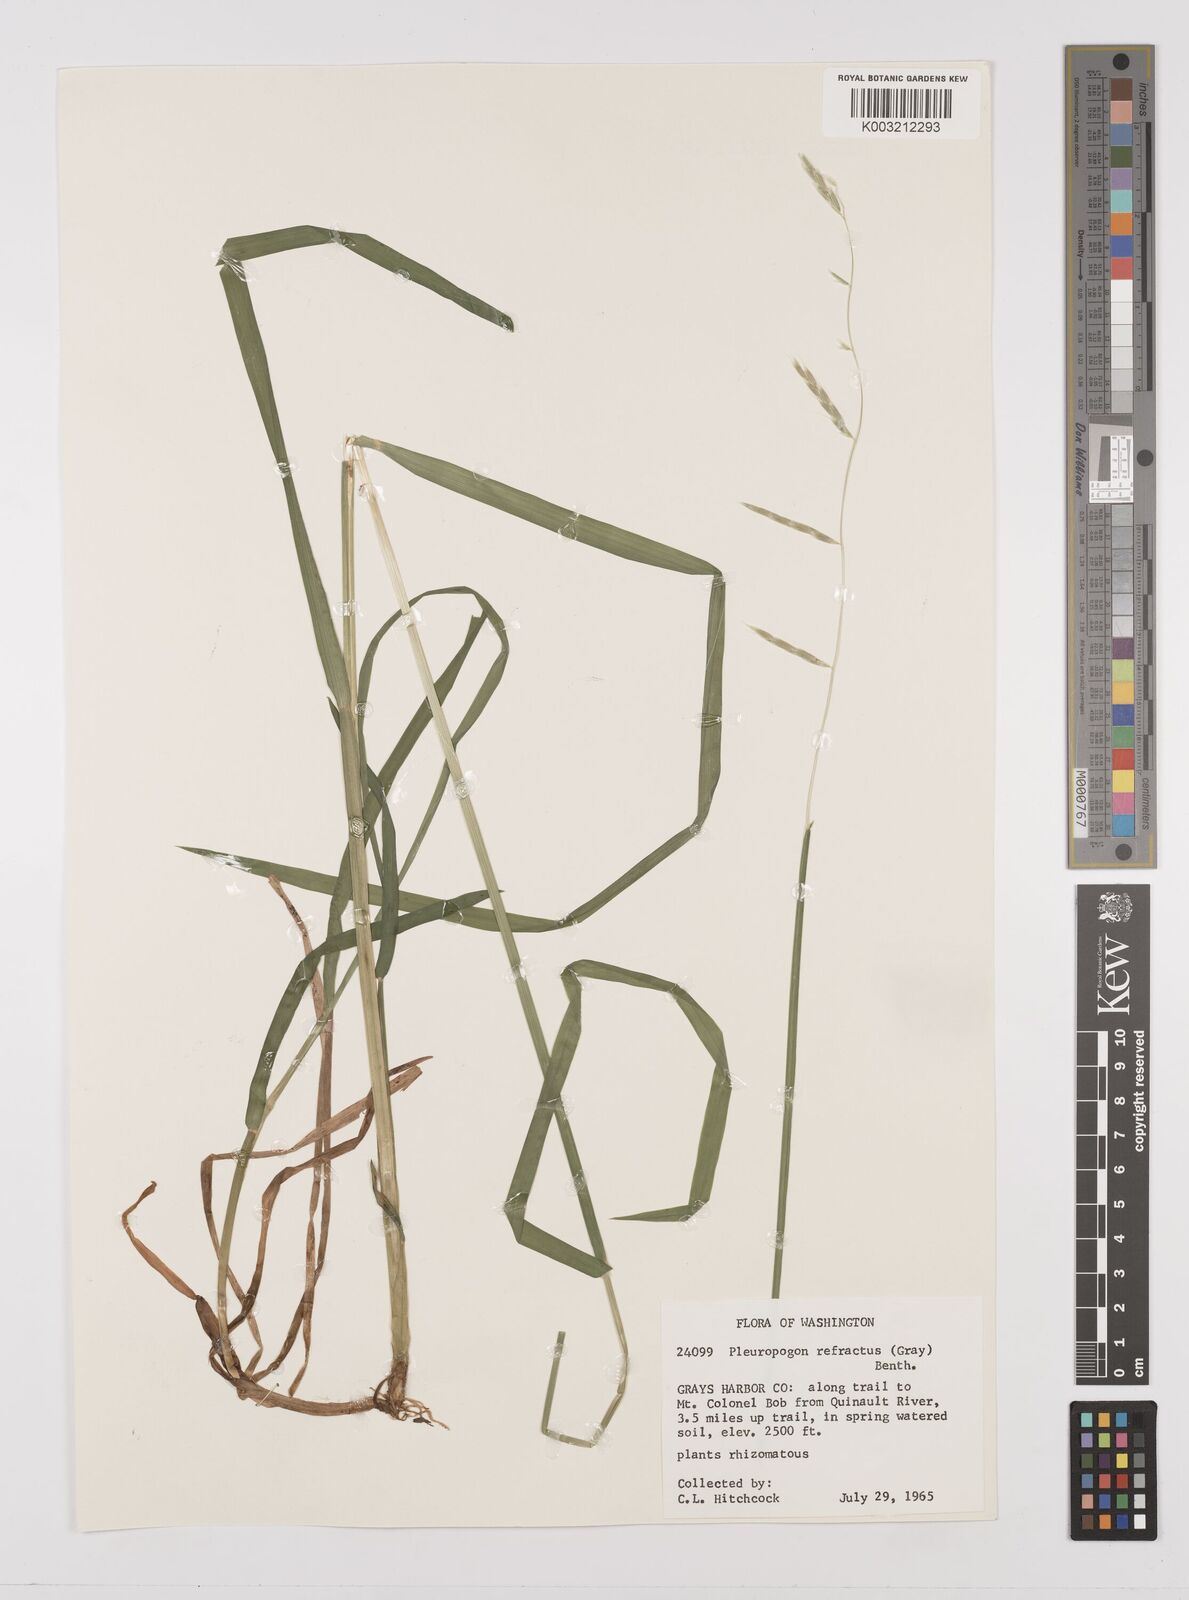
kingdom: Plantae
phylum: Tracheophyta
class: Liliopsida
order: Poales
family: Poaceae
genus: Pleuropogon
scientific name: Pleuropogon refractus
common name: Nodding false semaphoregrass
